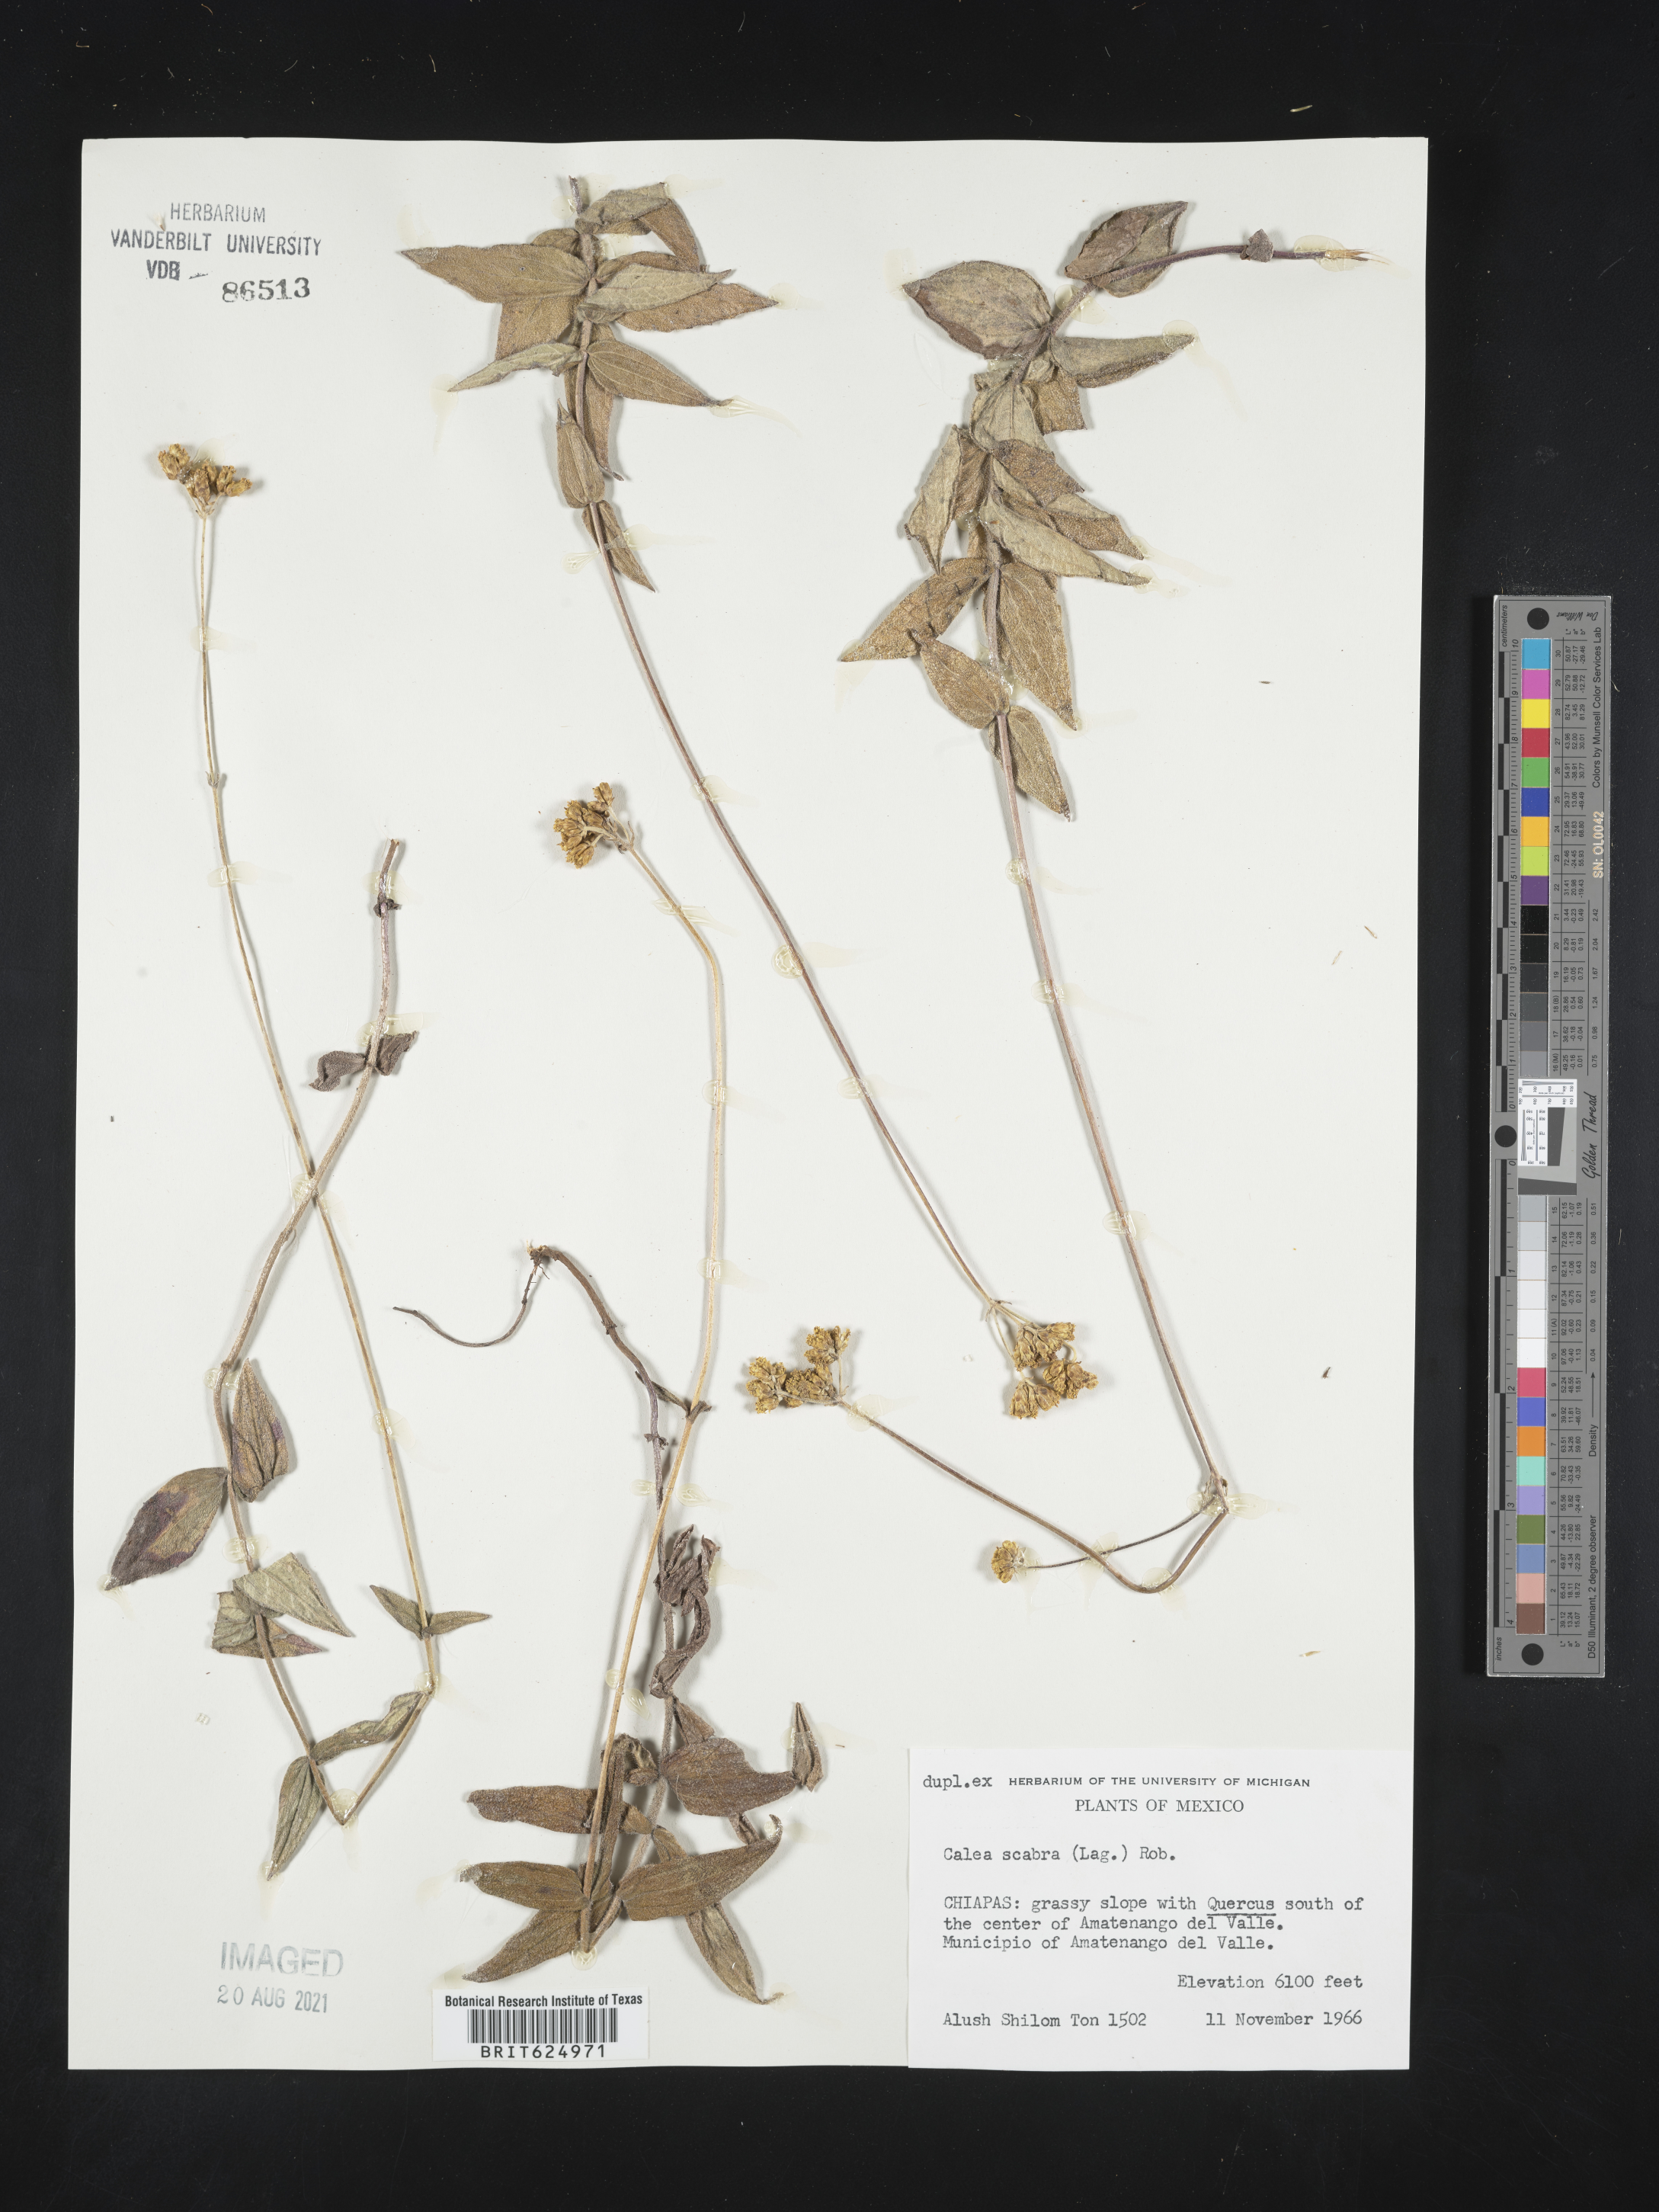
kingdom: Plantae
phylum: Tracheophyta
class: Magnoliopsida
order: Asterales
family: Asteraceae
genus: Alloispermum
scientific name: Alloispermum scabrum
